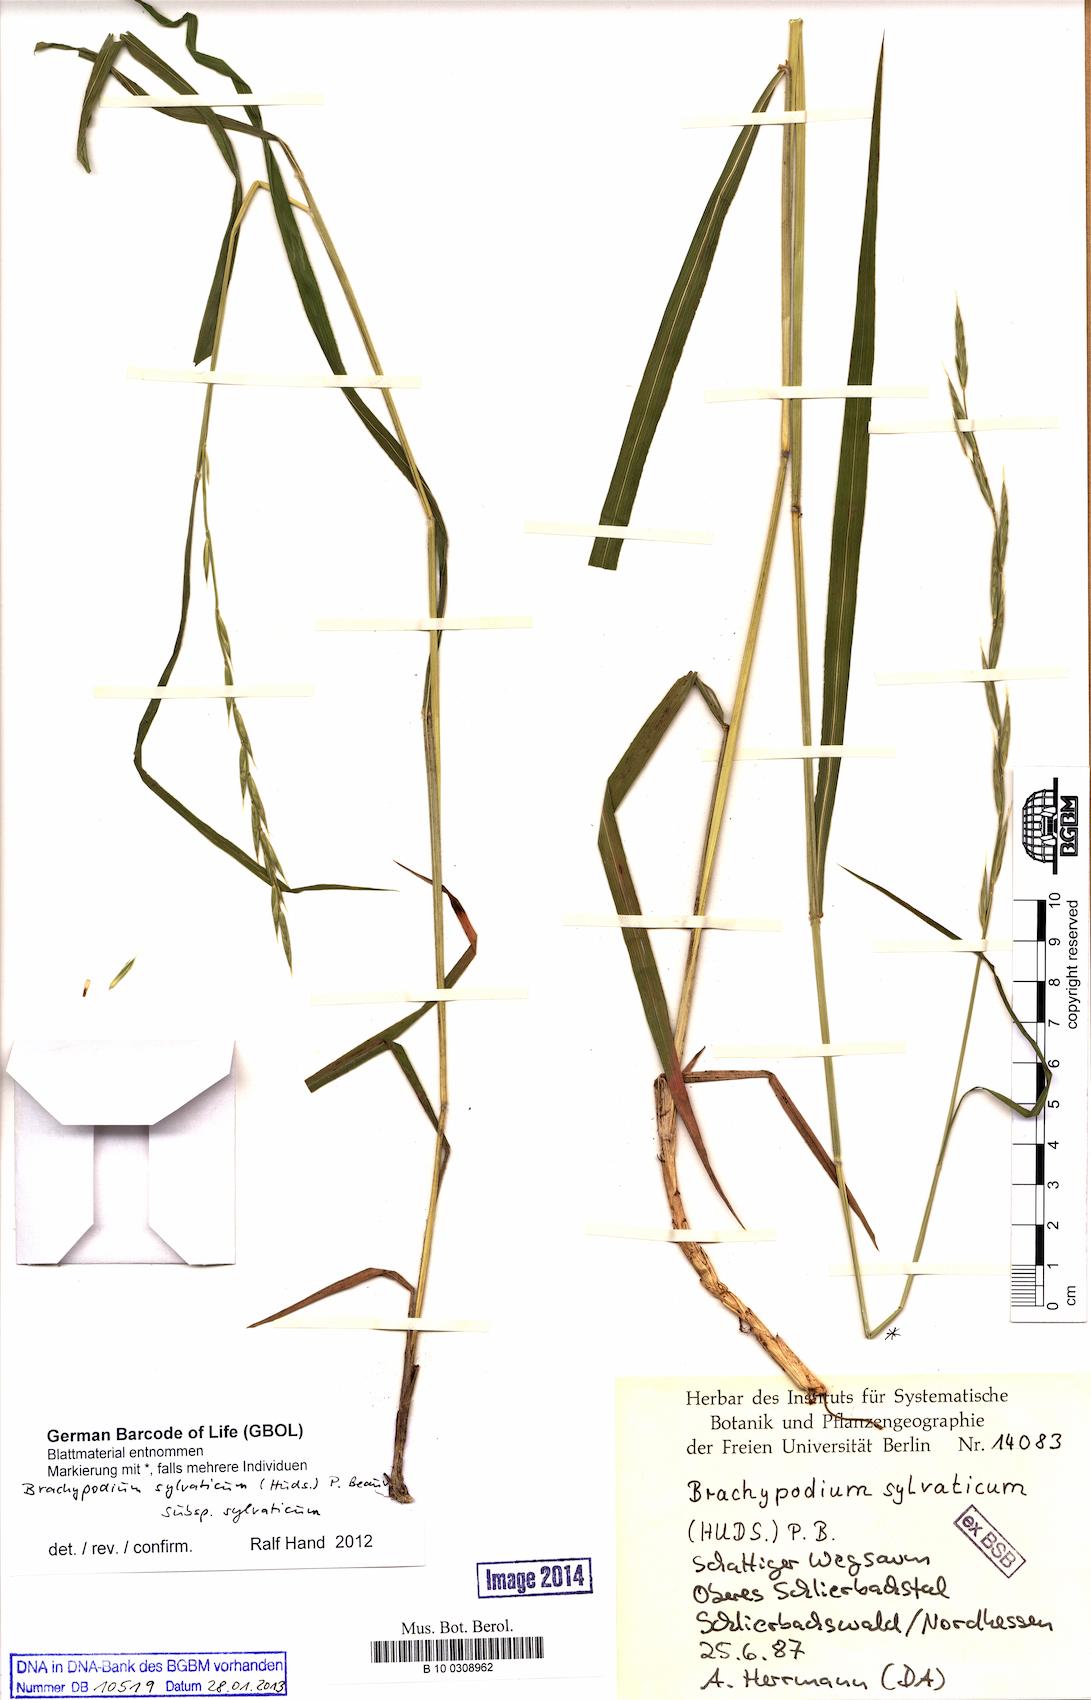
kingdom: Plantae
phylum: Tracheophyta
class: Liliopsida
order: Poales
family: Poaceae
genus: Brachypodium
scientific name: Brachypodium sylvaticum
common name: False-brome
